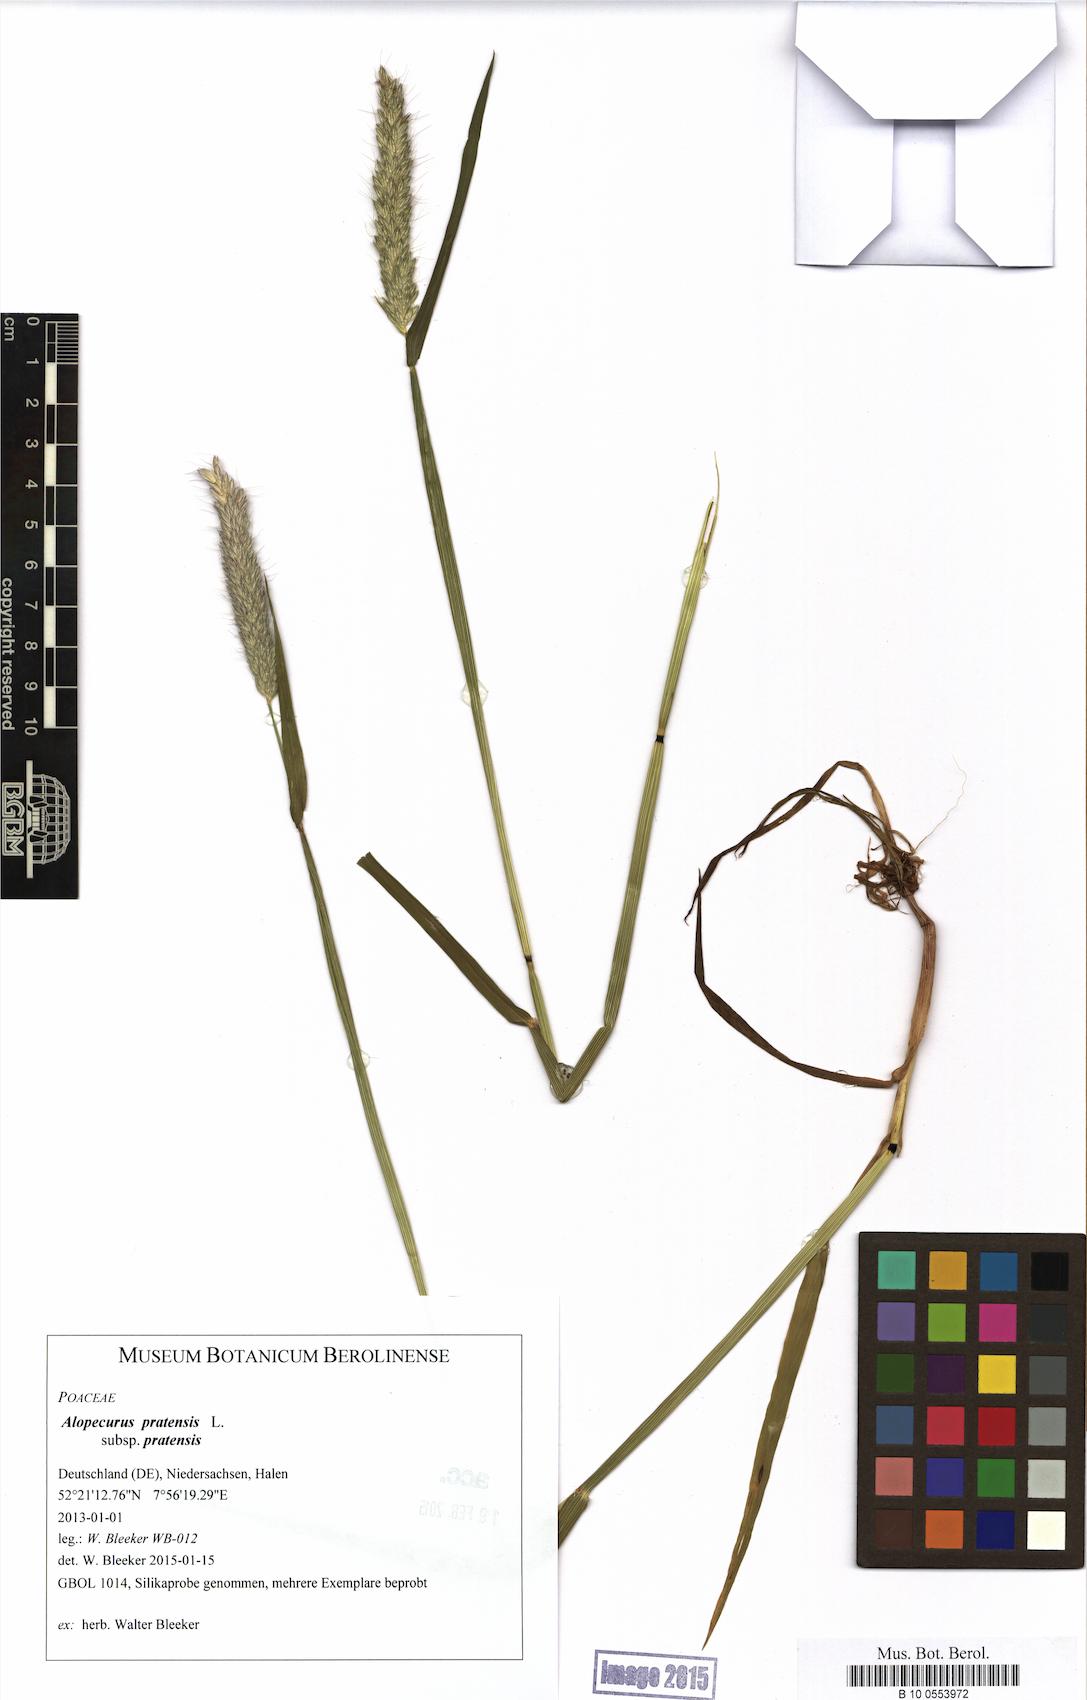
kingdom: Plantae
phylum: Tracheophyta
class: Liliopsida
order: Poales
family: Poaceae
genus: Alopecurus
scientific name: Alopecurus pratensis
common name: Meadow foxtail
